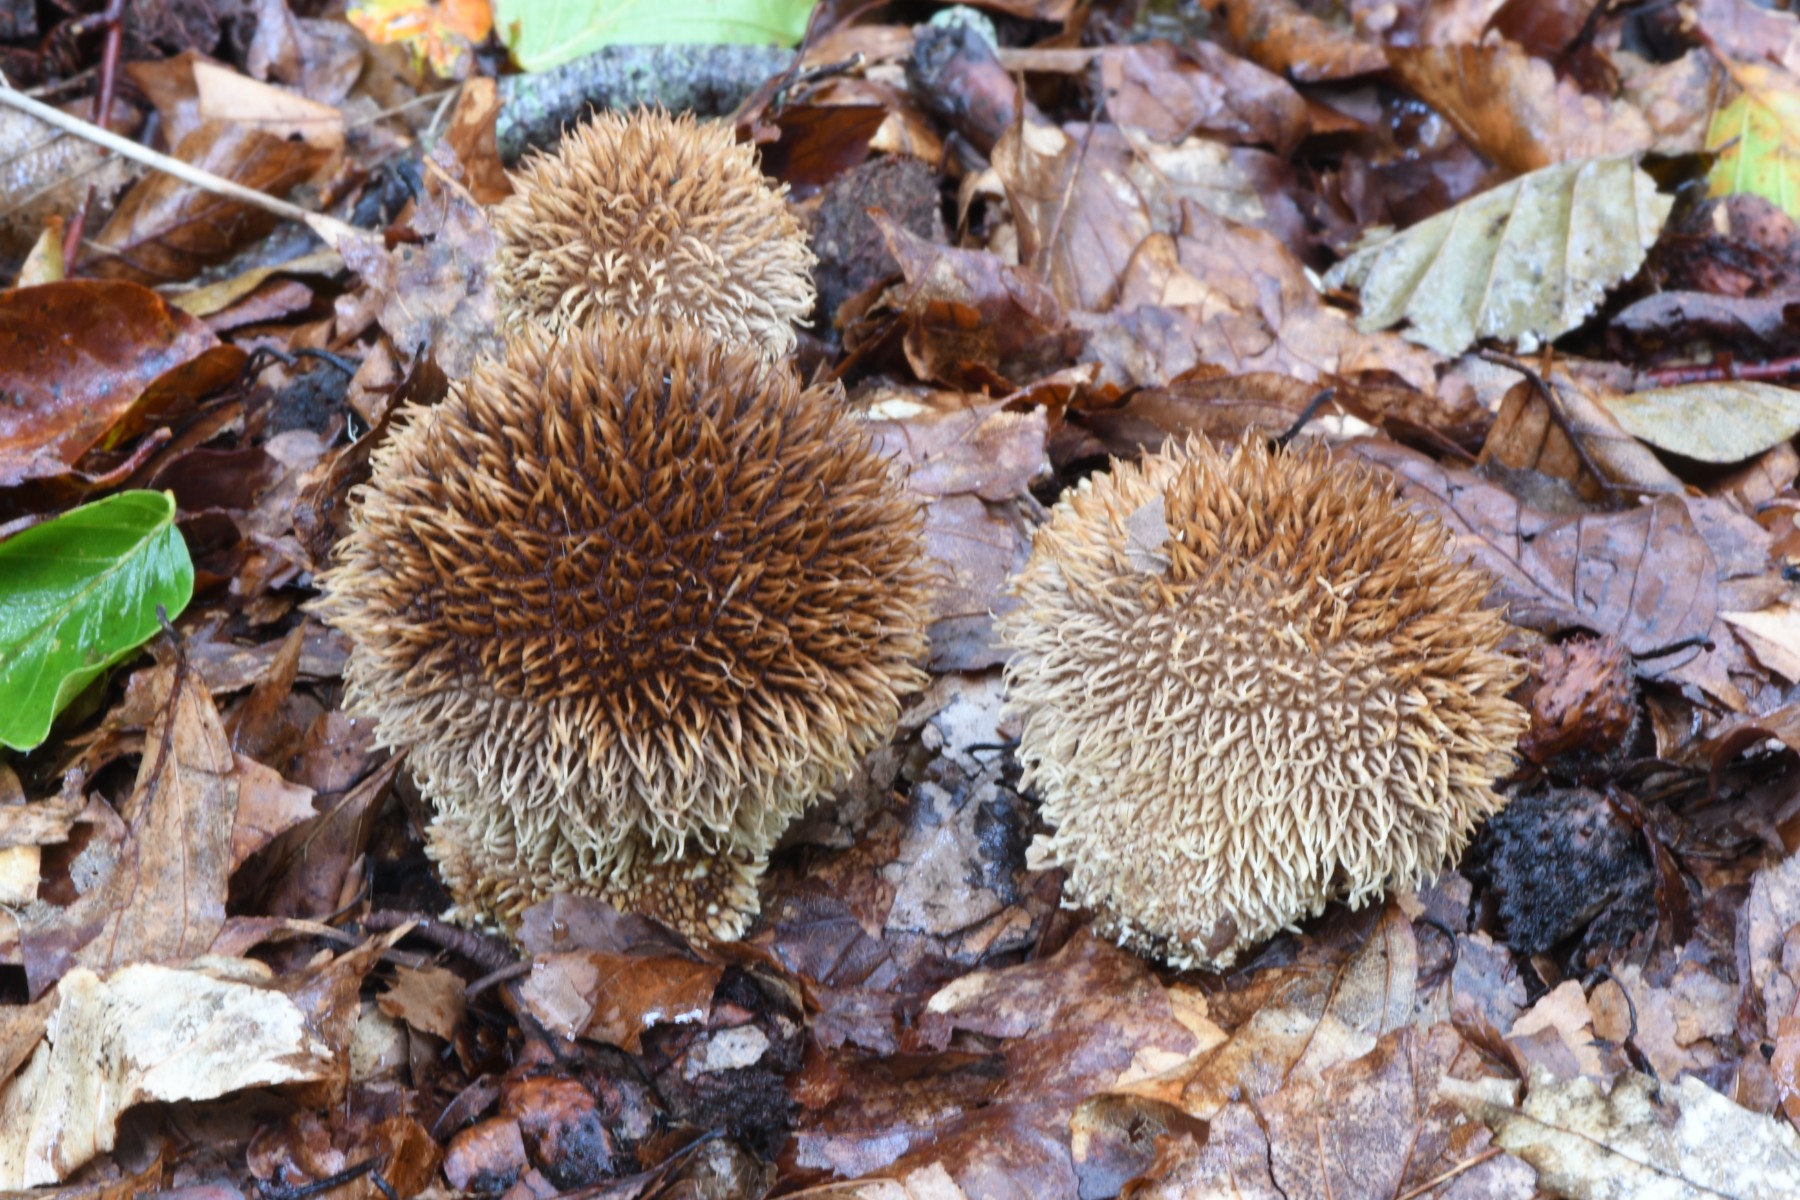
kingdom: Fungi
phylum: Basidiomycota
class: Agaricomycetes
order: Agaricales
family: Lycoperdaceae
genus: Lycoperdon
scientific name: Lycoperdon echinatum
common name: pindsvine-støvbold
